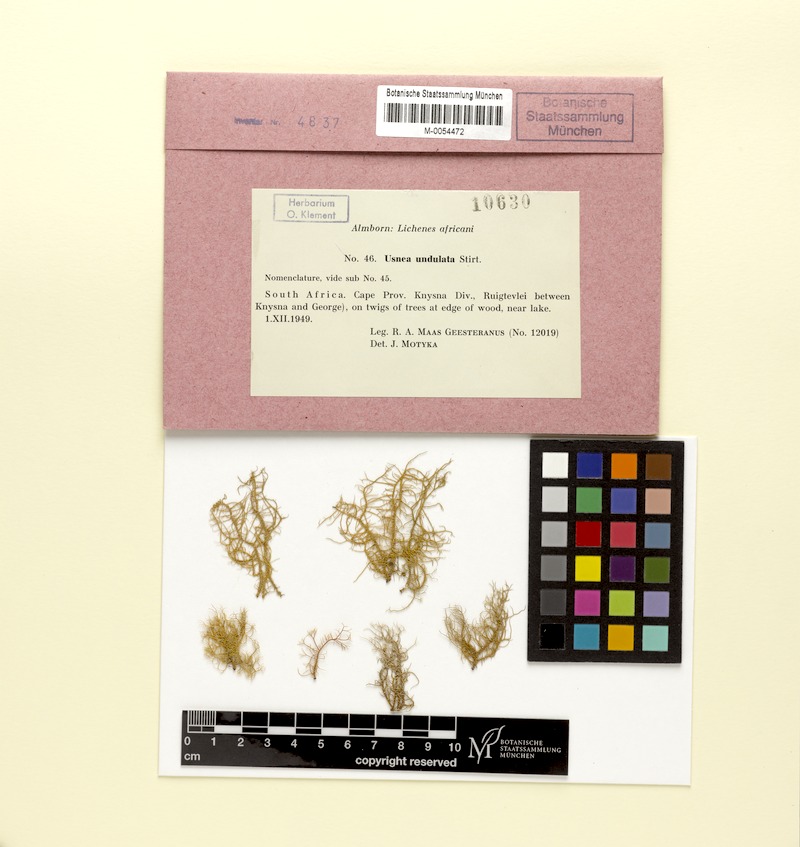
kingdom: Fungi
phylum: Ascomycota
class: Lecanoromycetes
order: Lecanorales
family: Parmeliaceae
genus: Usnea
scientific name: Usnea angulata
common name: Old-man’s beard lichen
